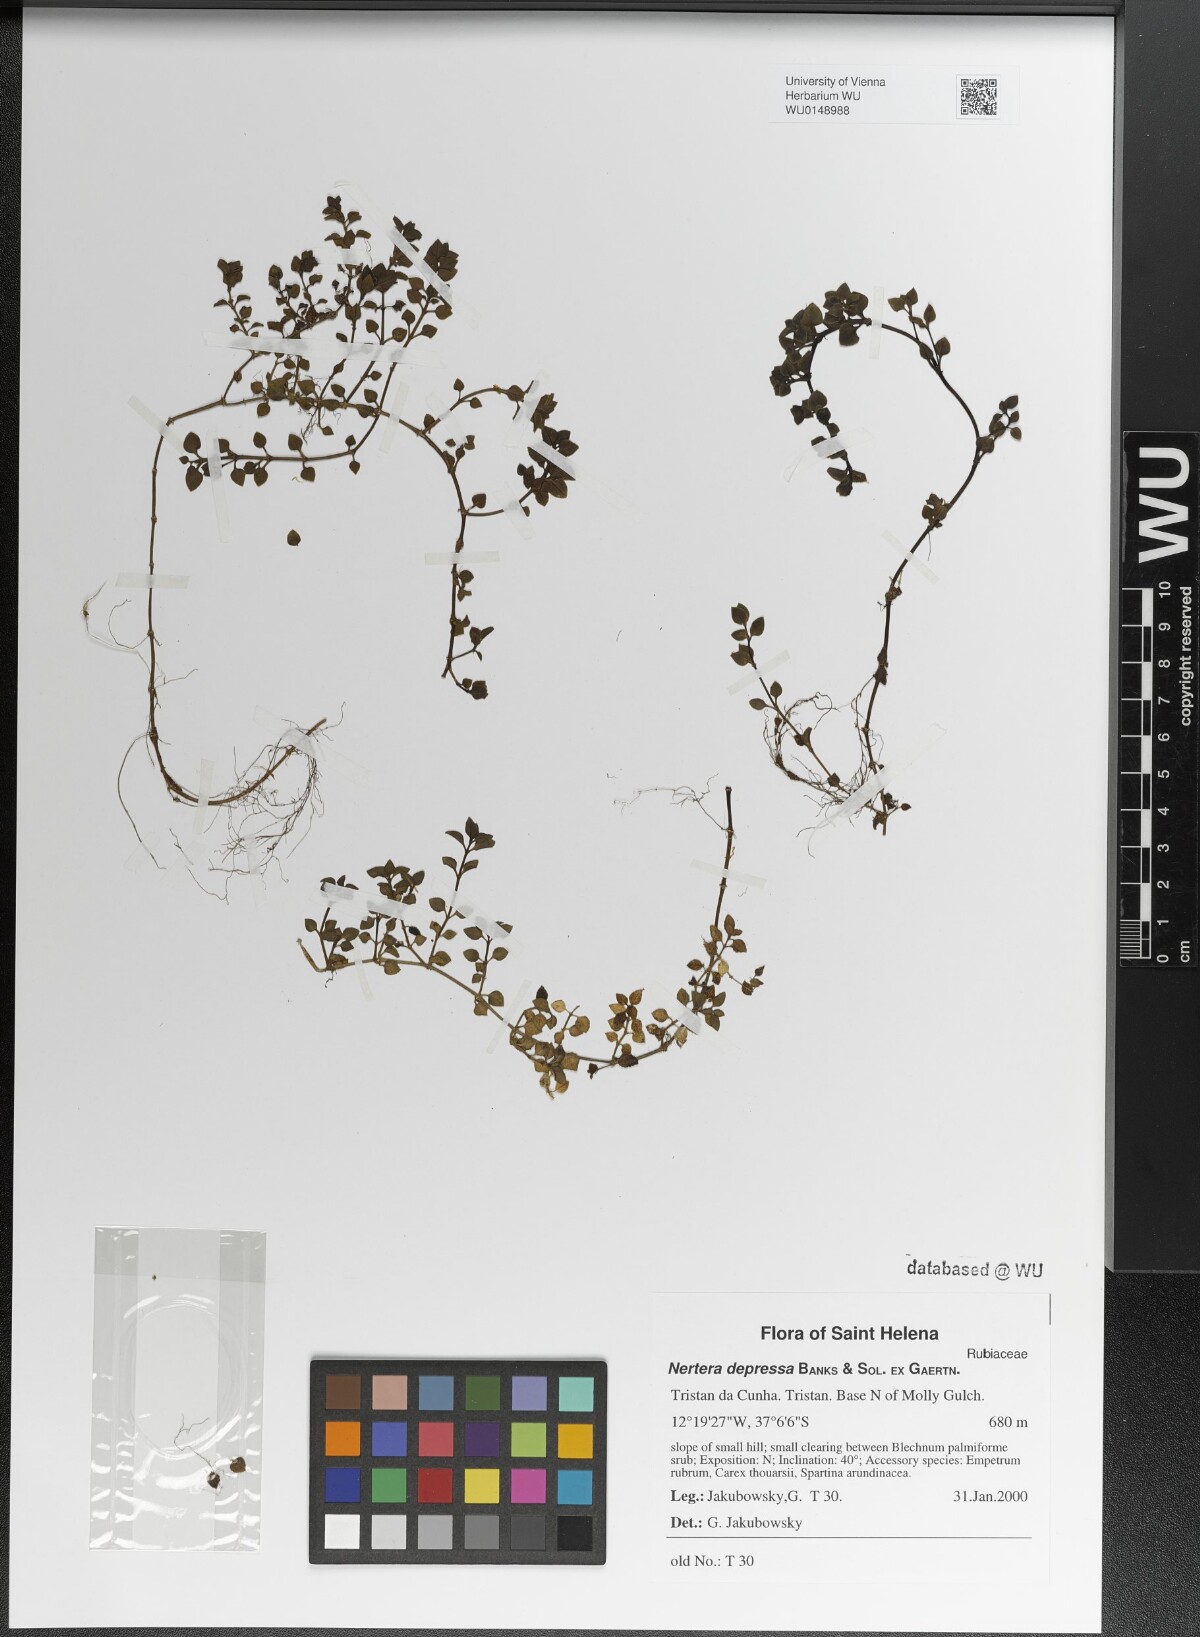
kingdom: Plantae
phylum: Tracheophyta
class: Magnoliopsida
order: Gentianales
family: Rubiaceae
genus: Nertera
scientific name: Nertera granadensis
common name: Beadplant
